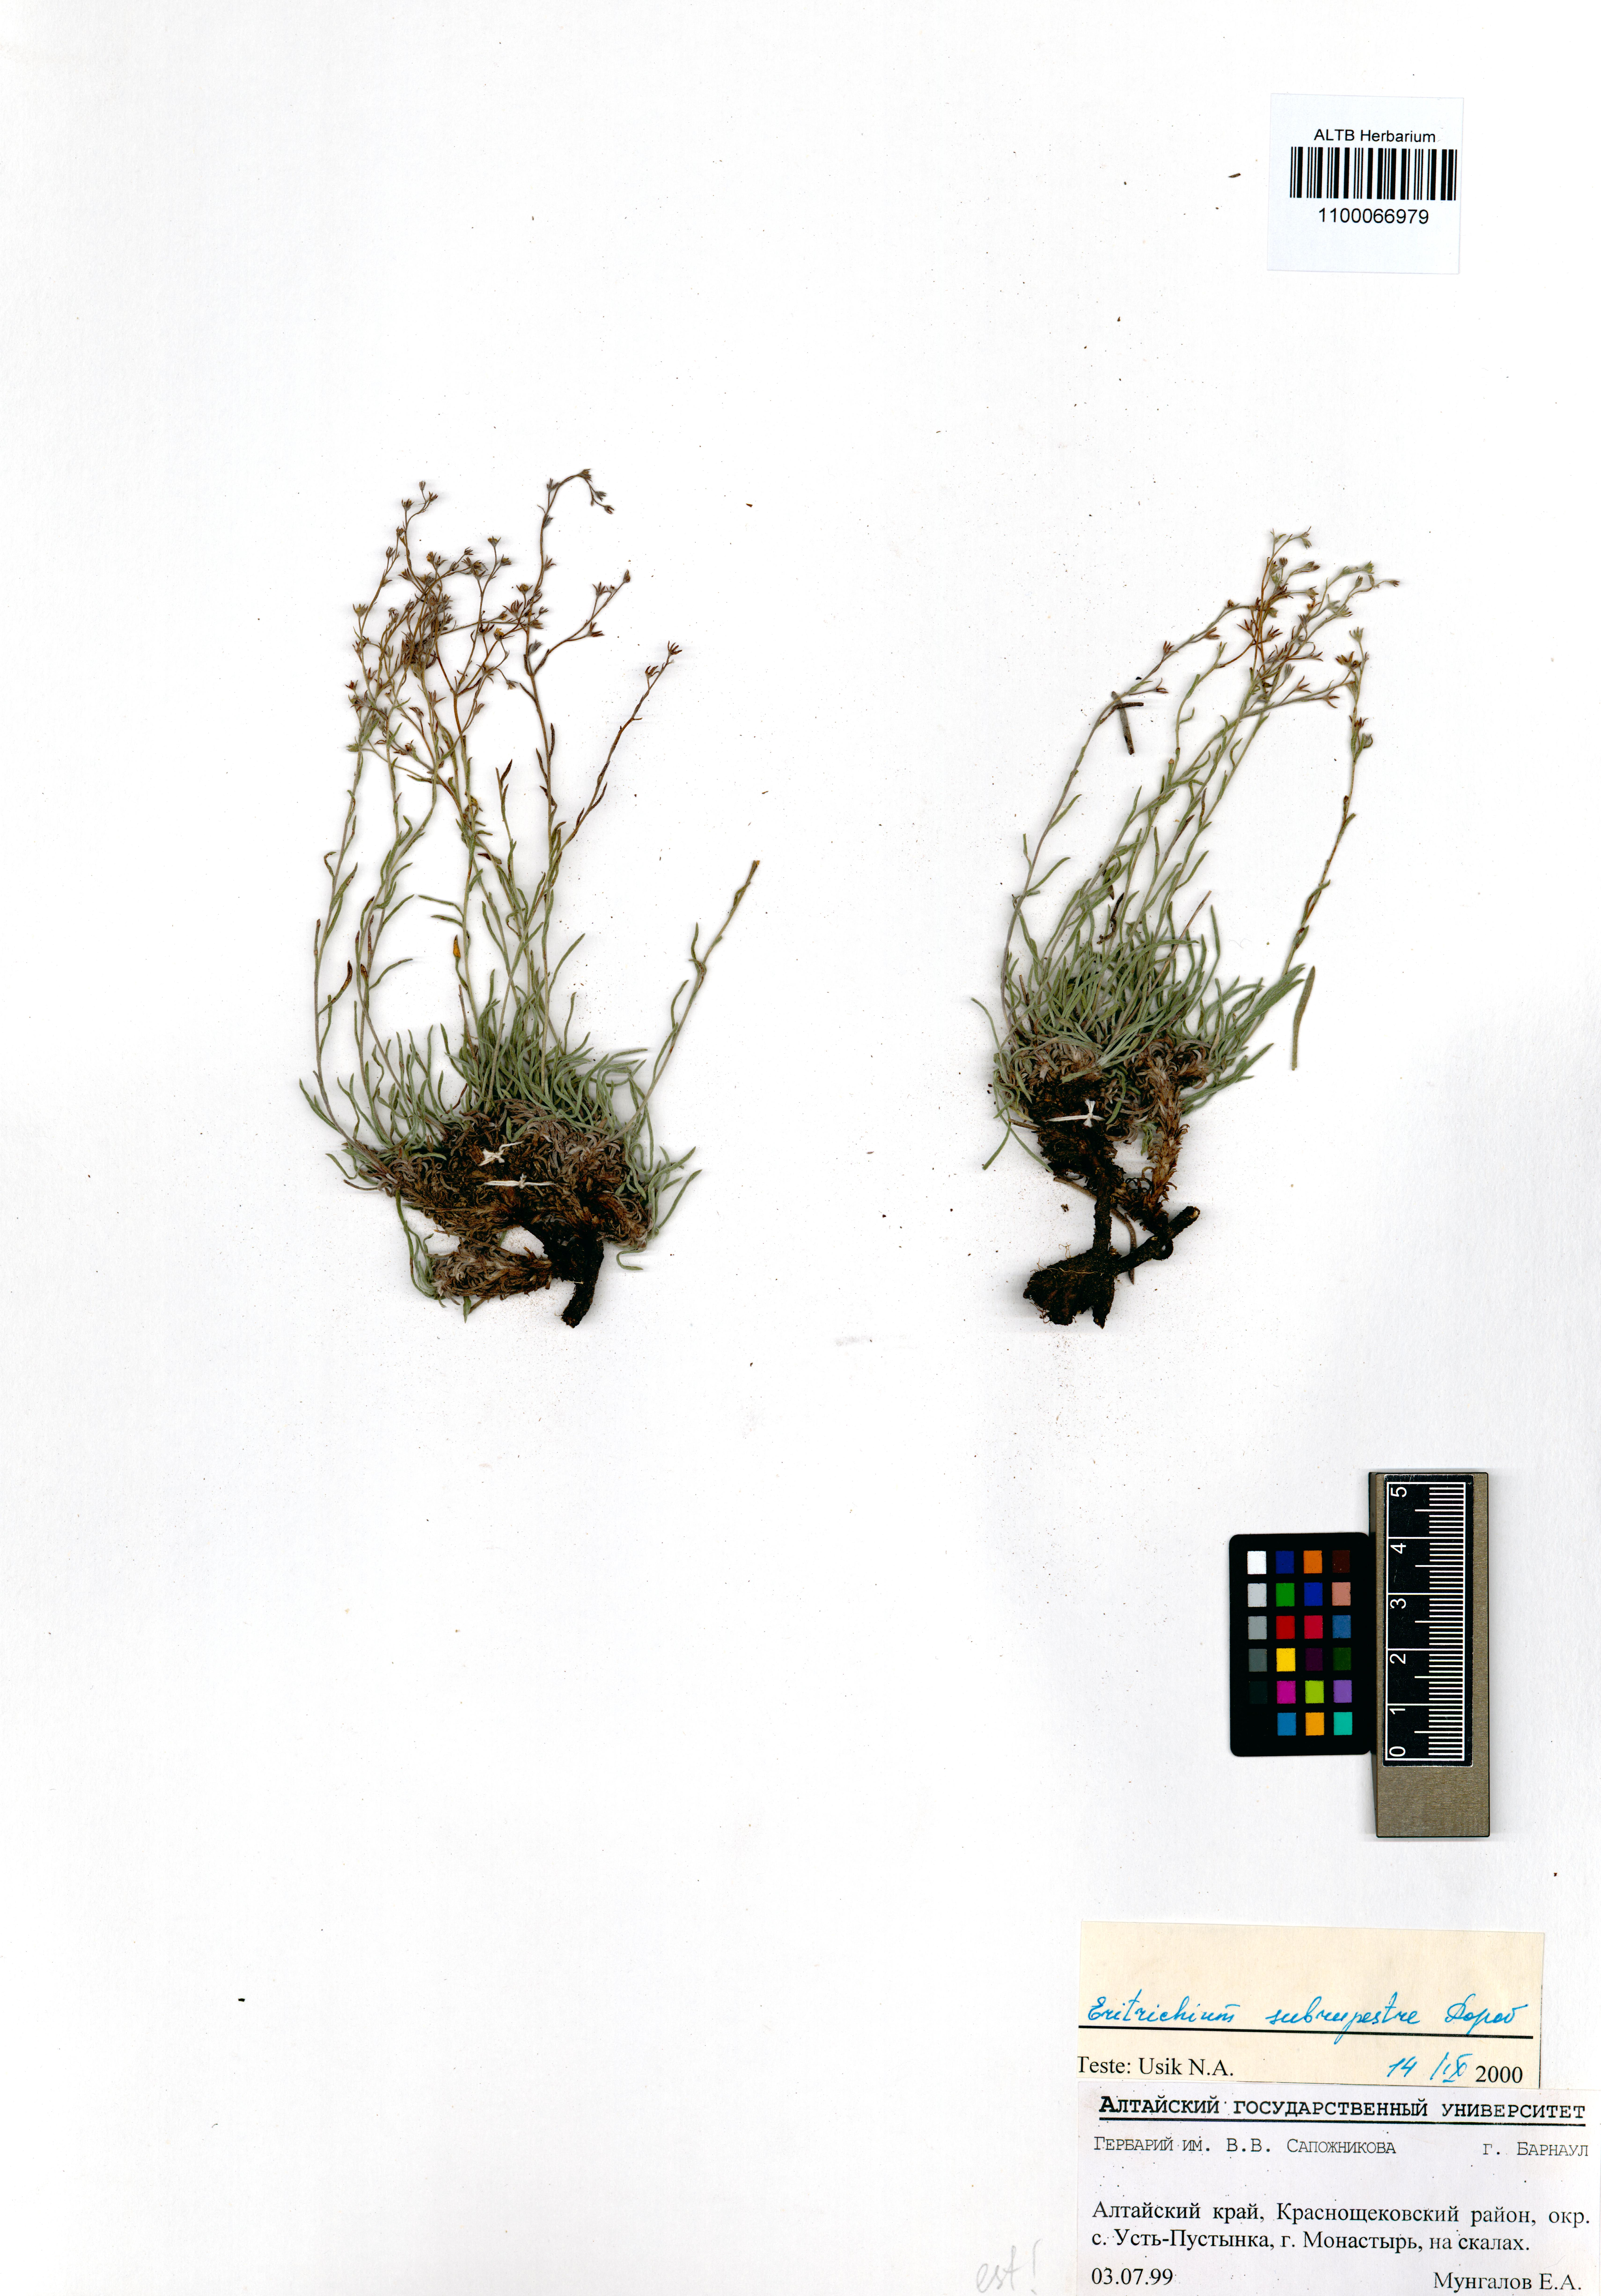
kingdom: Plantae
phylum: Tracheophyta
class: Magnoliopsida
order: Boraginales
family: Boraginaceae
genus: Eritrichium
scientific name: Eritrichium pauciflorum
